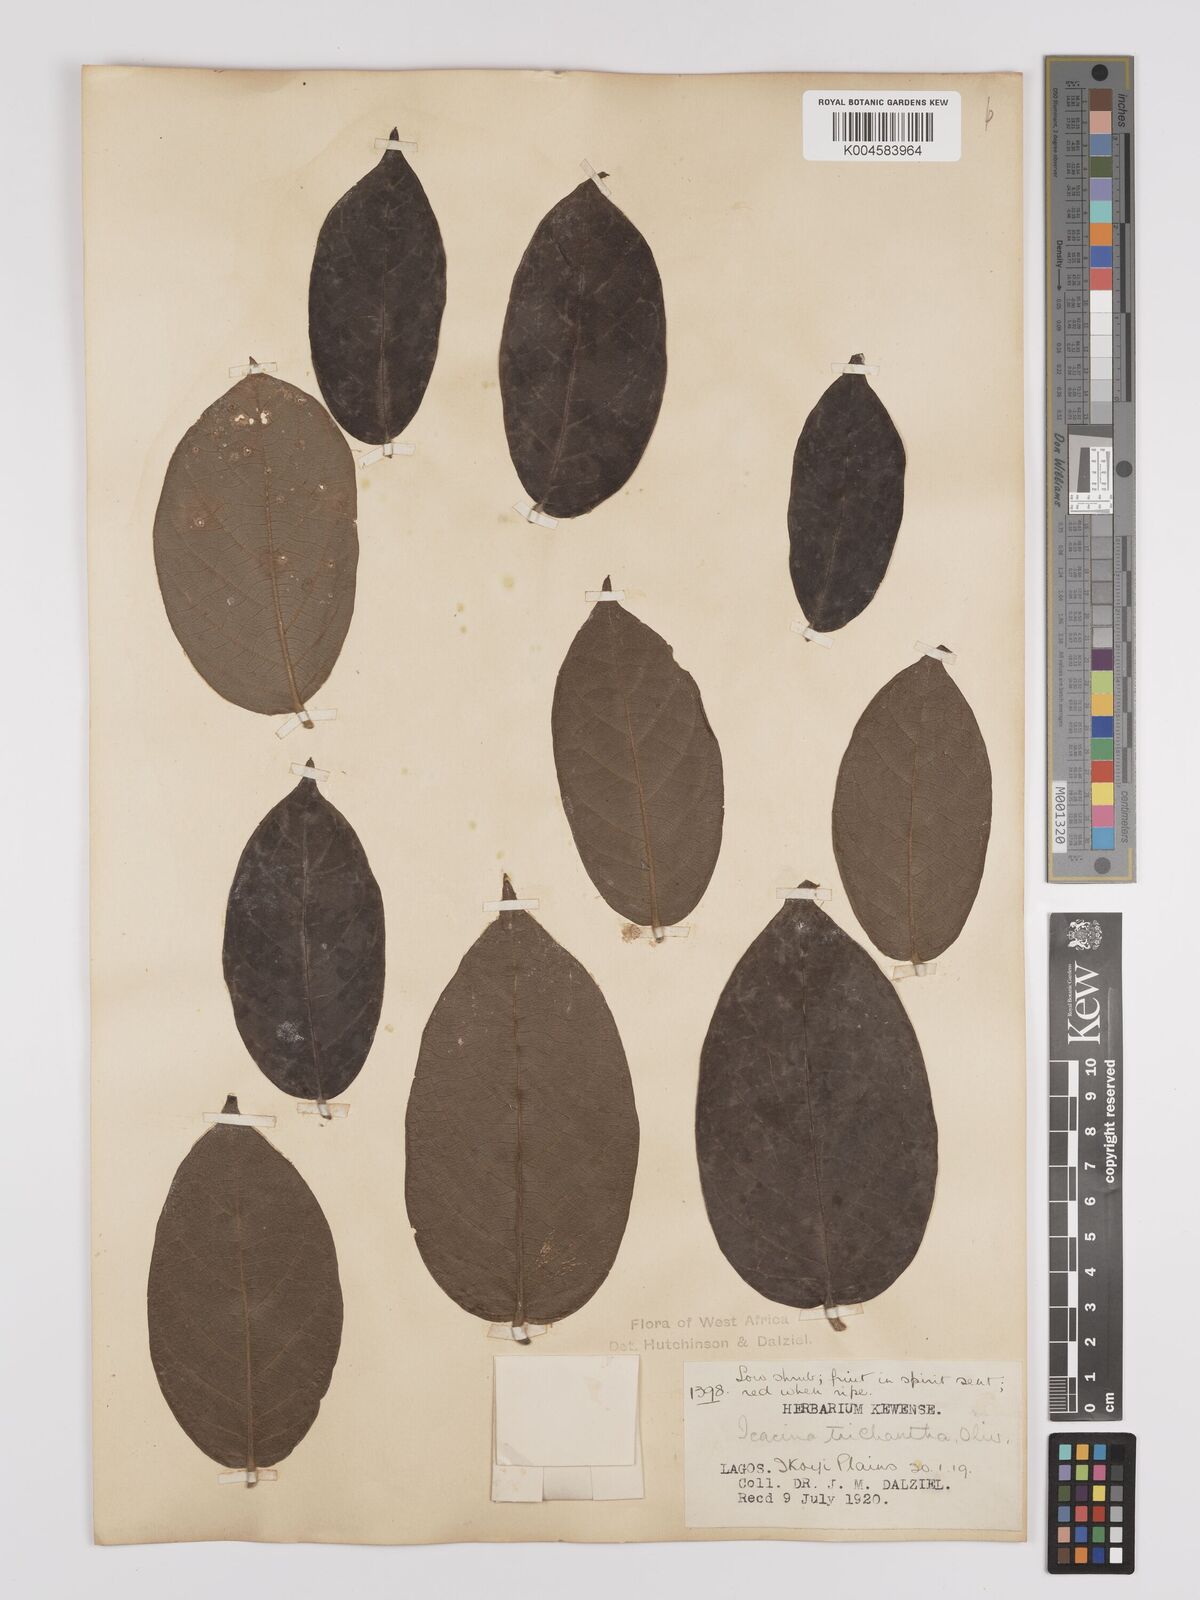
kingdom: Plantae
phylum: Tracheophyta
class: Magnoliopsida
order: Icacinales
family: Icacinaceae
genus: Icacina
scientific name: Icacina trichantha
